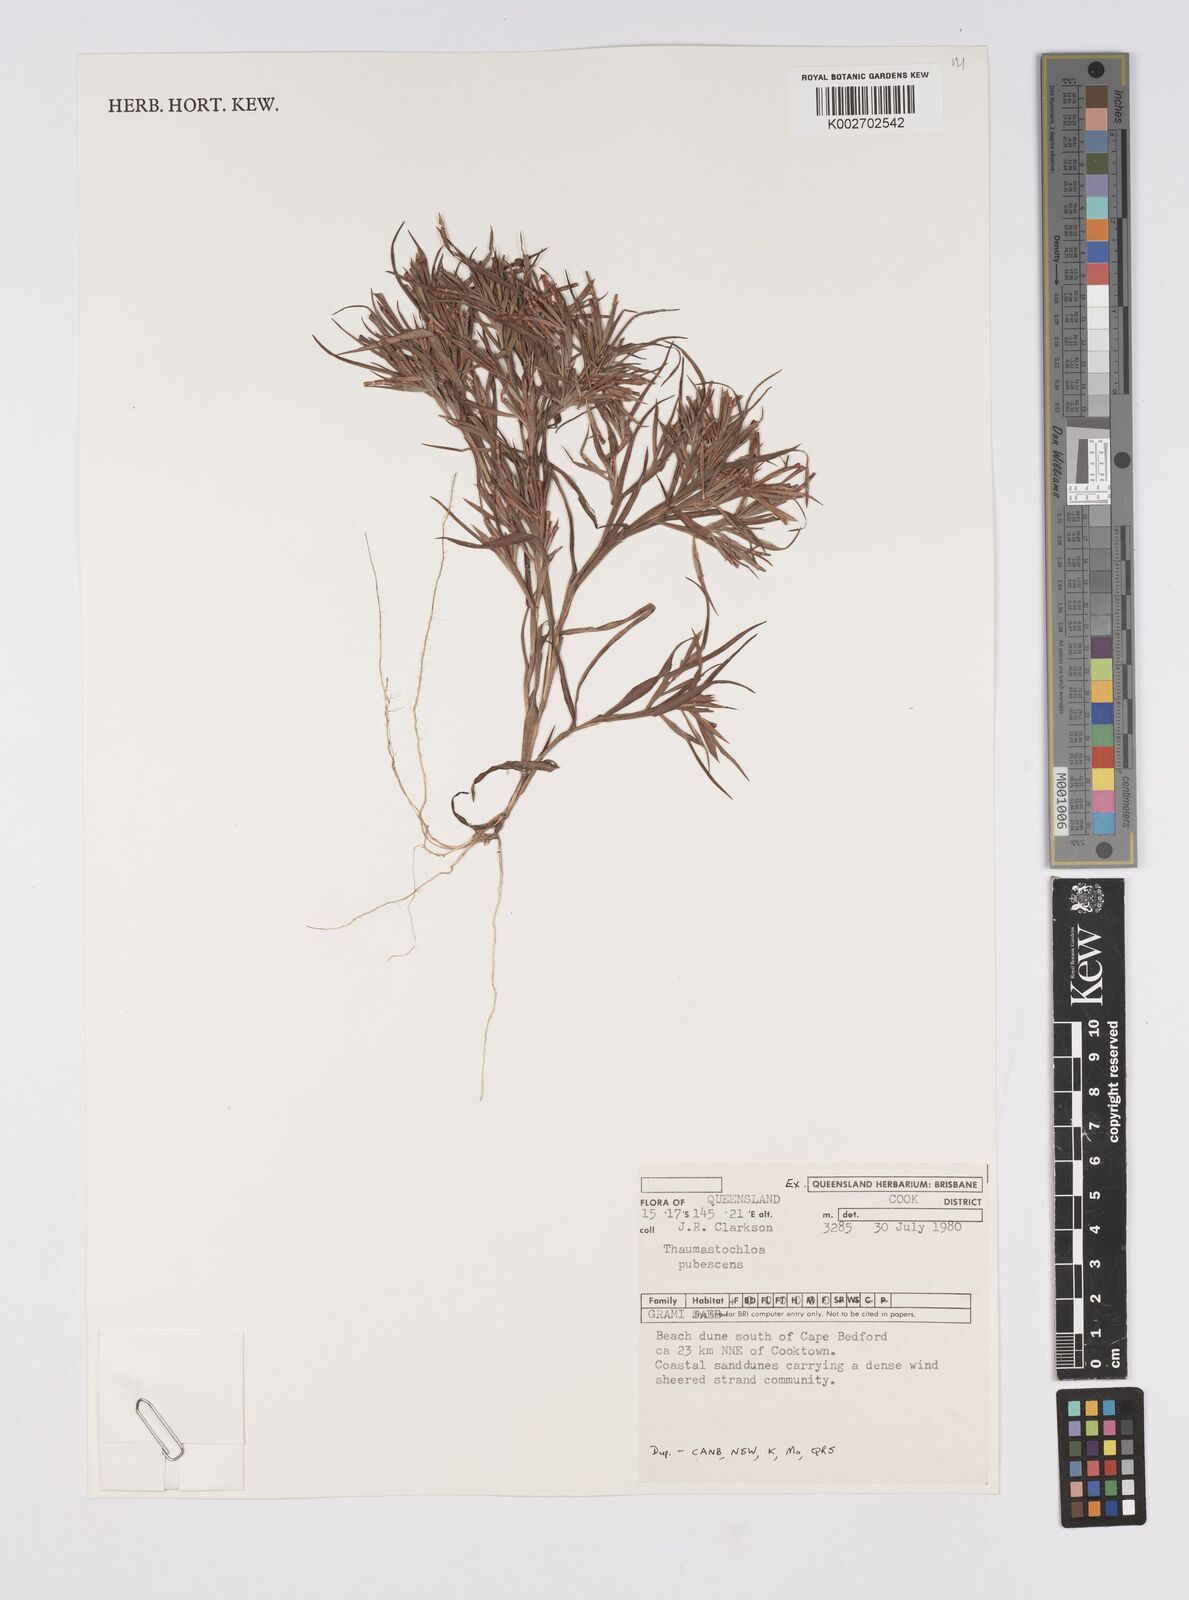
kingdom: Plantae
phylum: Tracheophyta
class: Liliopsida
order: Poales
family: Poaceae
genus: Thaumastochloa
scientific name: Thaumastochloa pubescens
